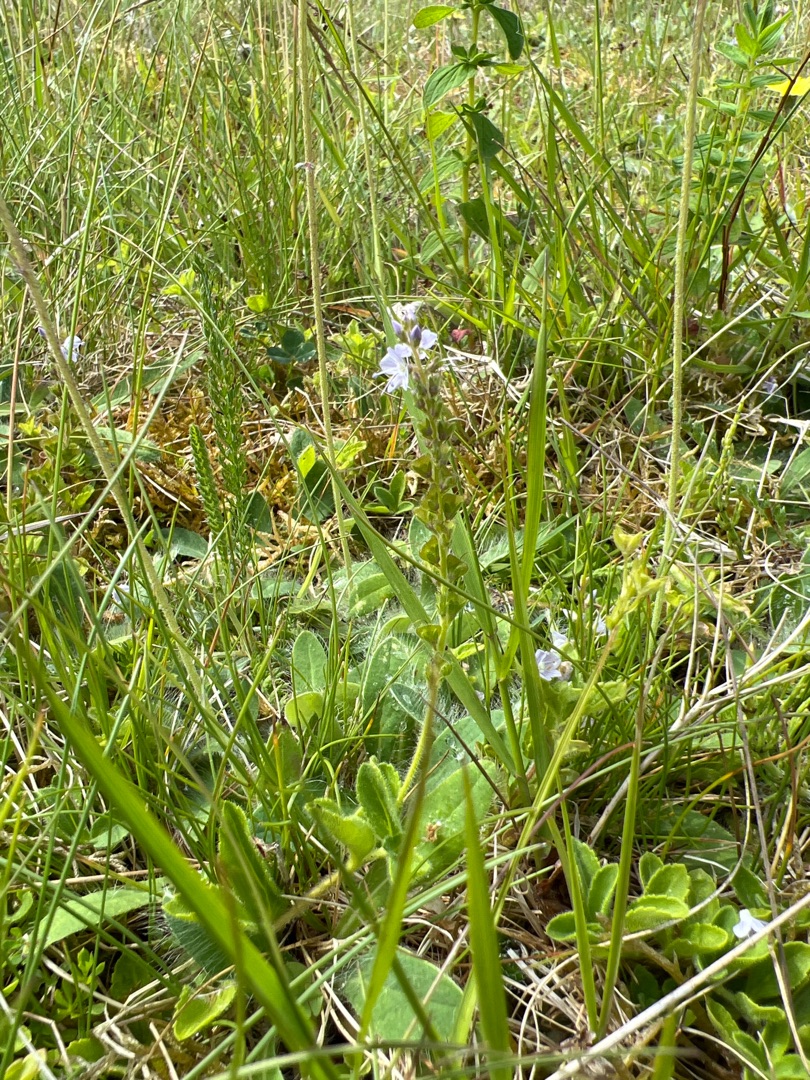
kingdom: Plantae
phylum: Tracheophyta
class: Magnoliopsida
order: Lamiales
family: Plantaginaceae
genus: Veronica
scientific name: Veronica officinalis
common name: Læge-ærenpris
